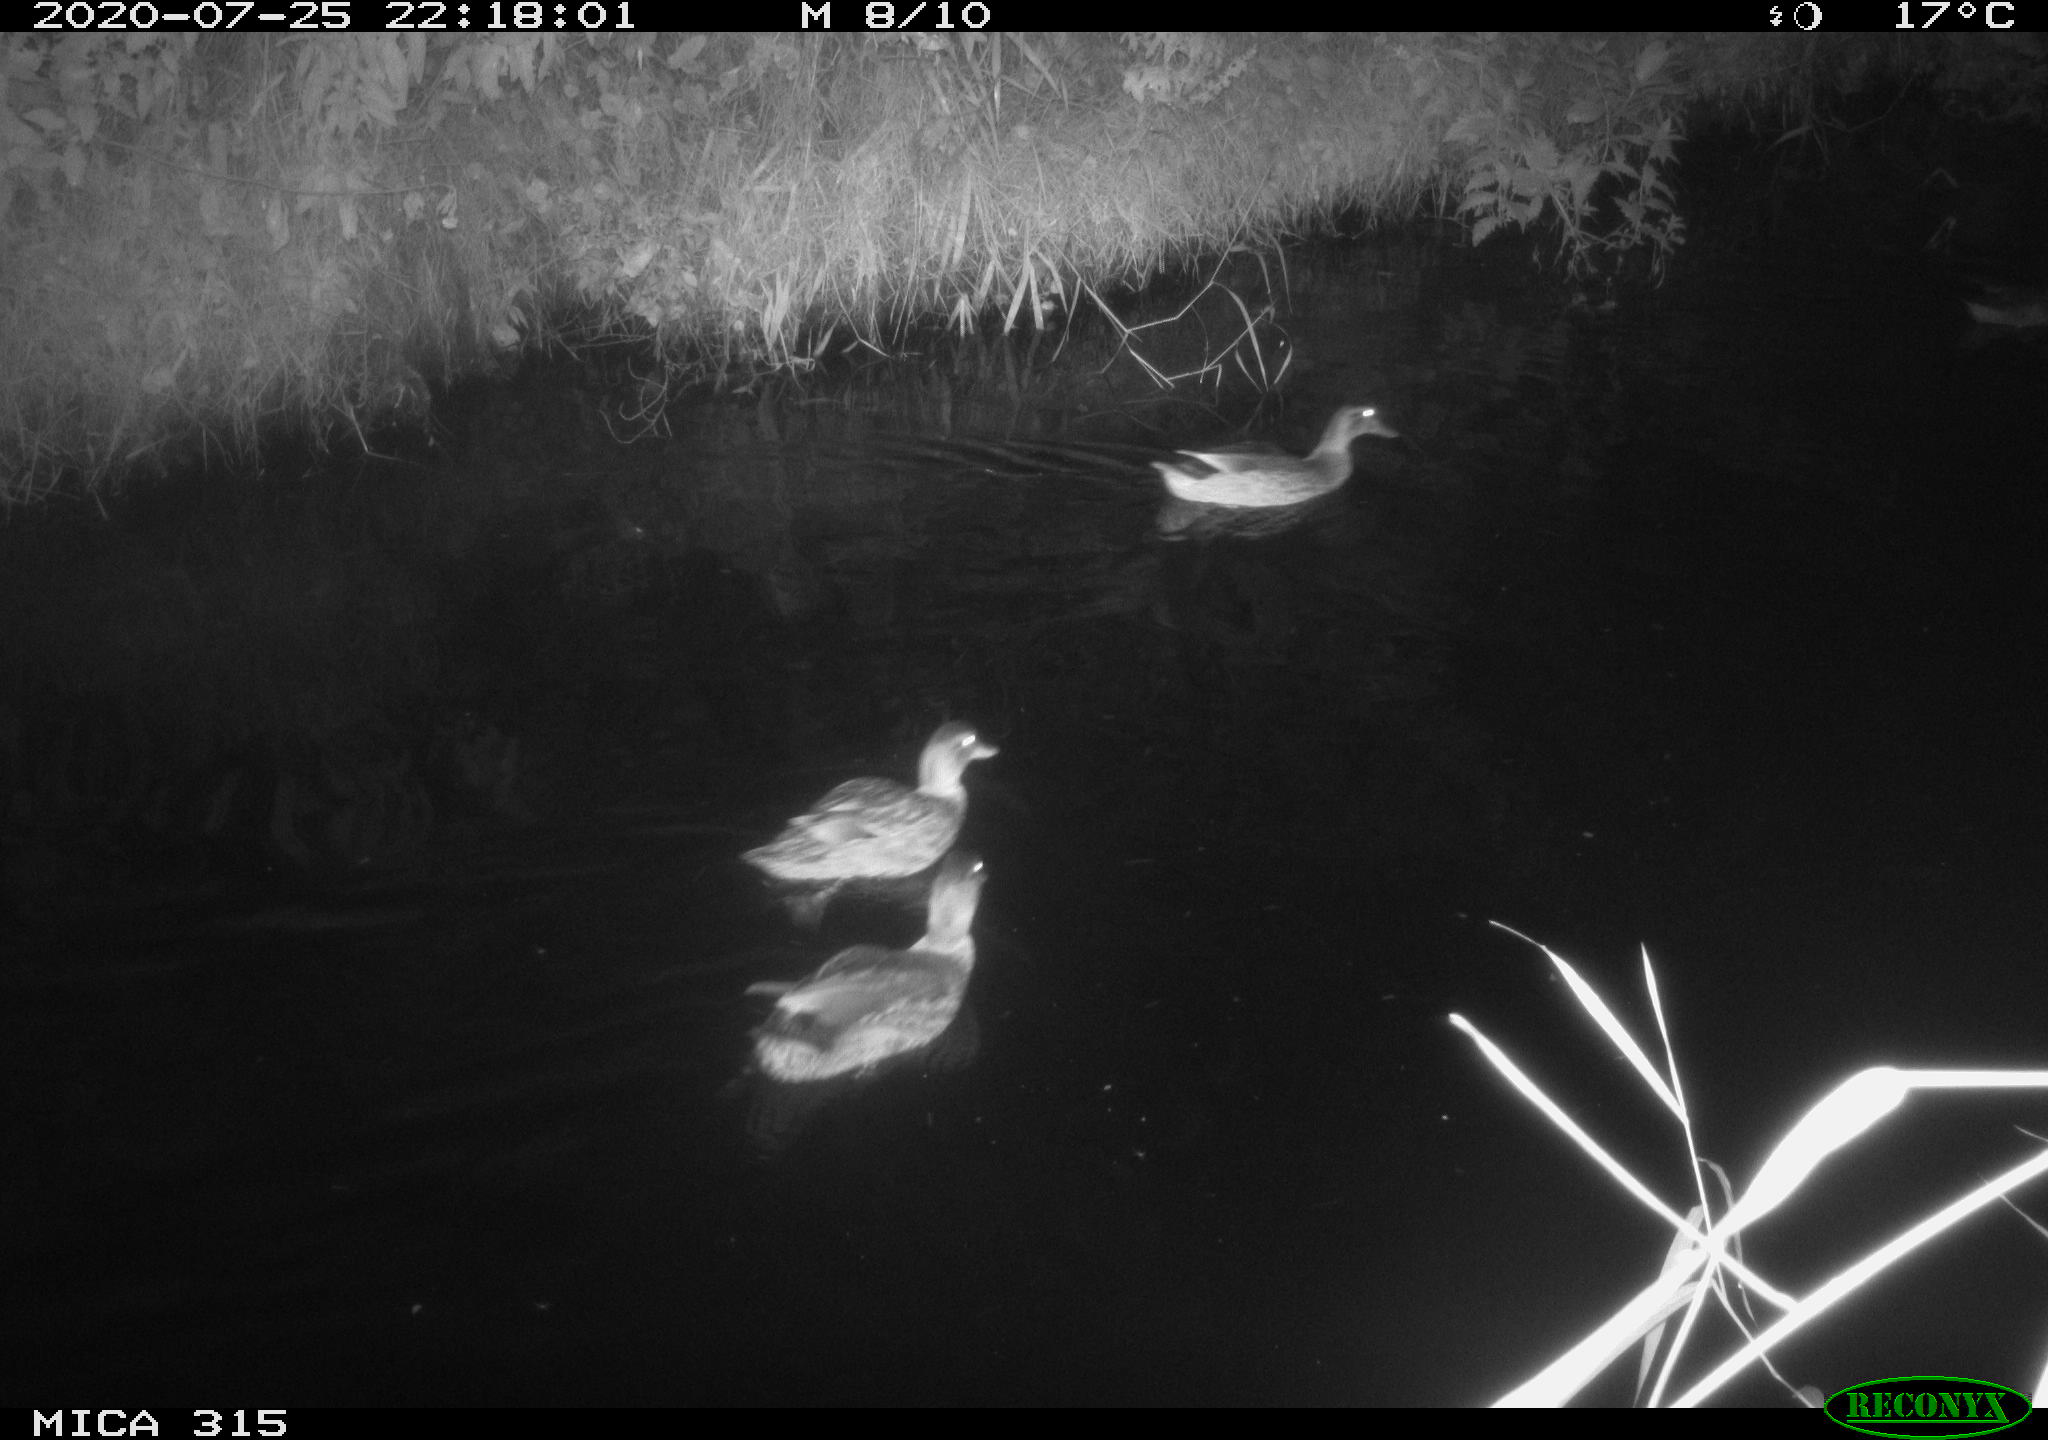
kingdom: Animalia
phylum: Chordata
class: Aves
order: Anseriformes
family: Anatidae
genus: Anas
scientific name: Anas platyrhynchos
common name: Mallard
